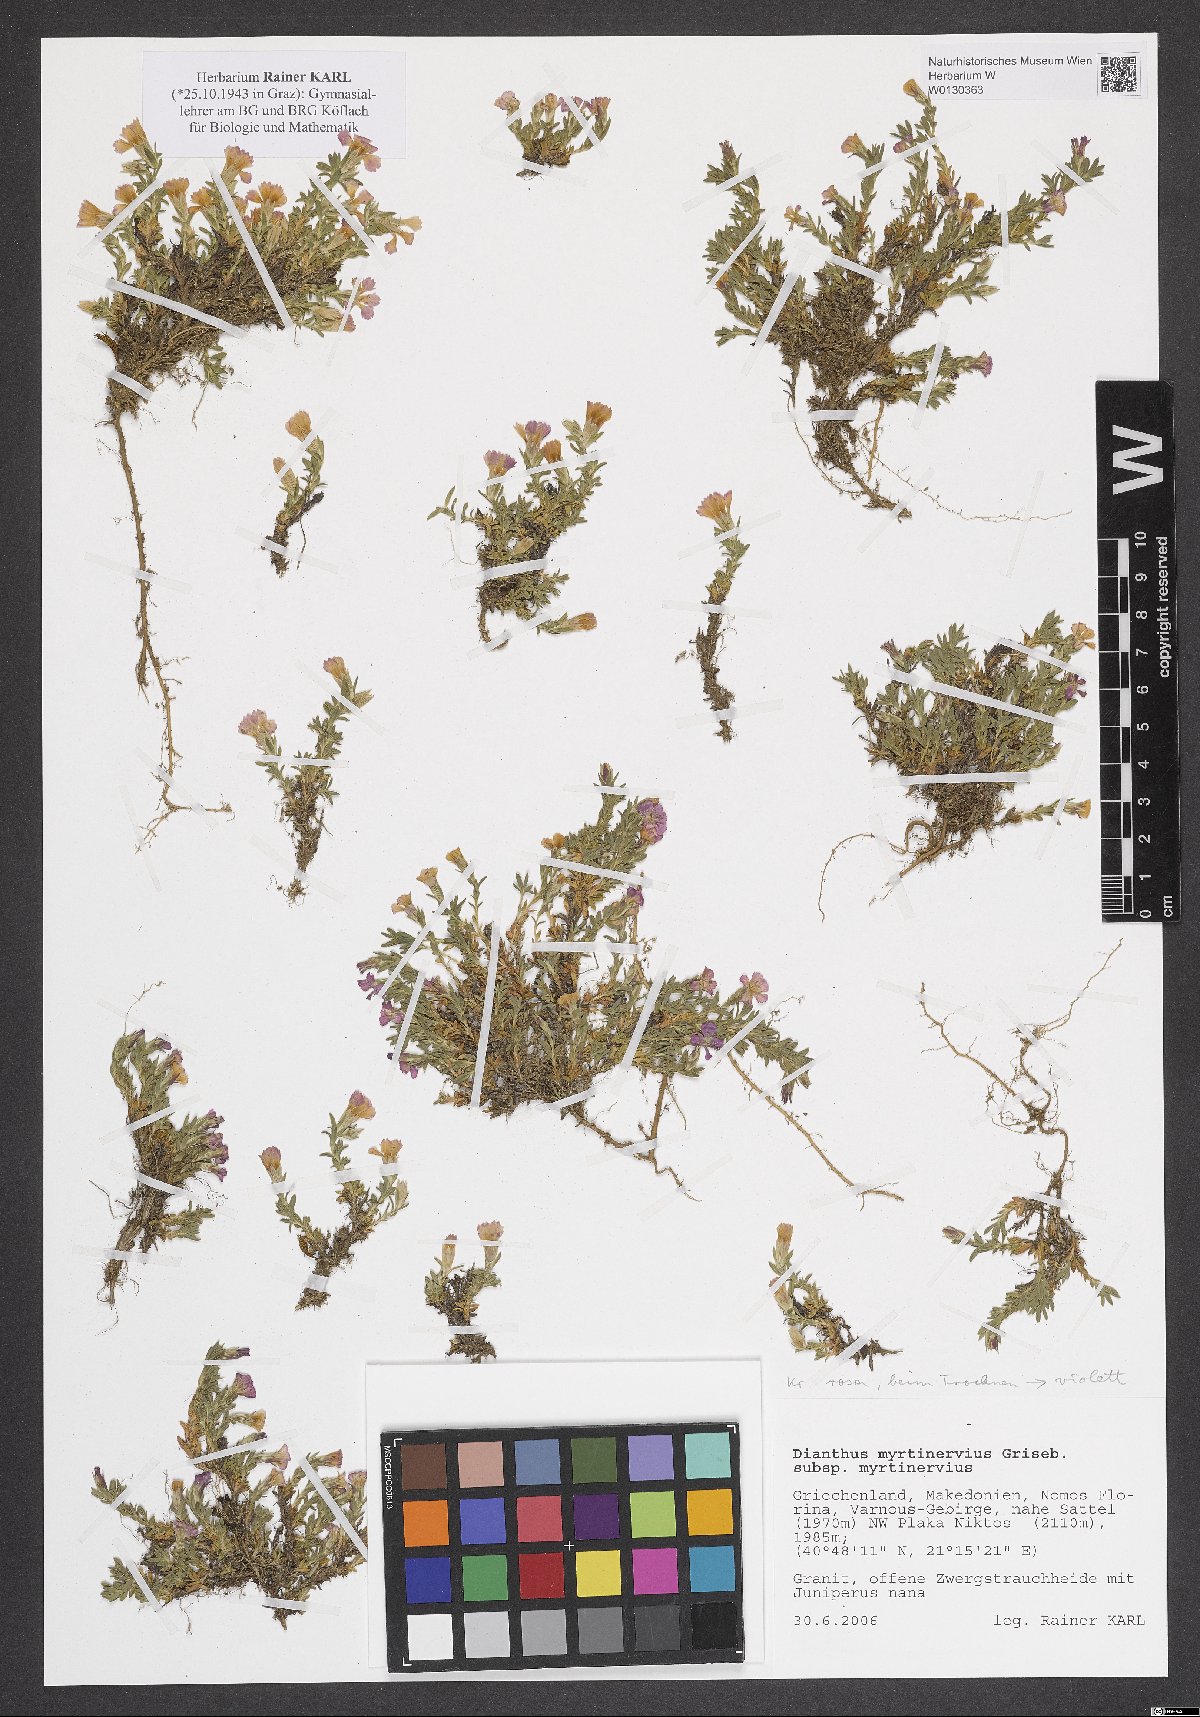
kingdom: Plantae
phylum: Tracheophyta
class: Magnoliopsida
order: Caryophyllales
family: Caryophyllaceae
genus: Dianthus
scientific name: Dianthus myrtinervius
